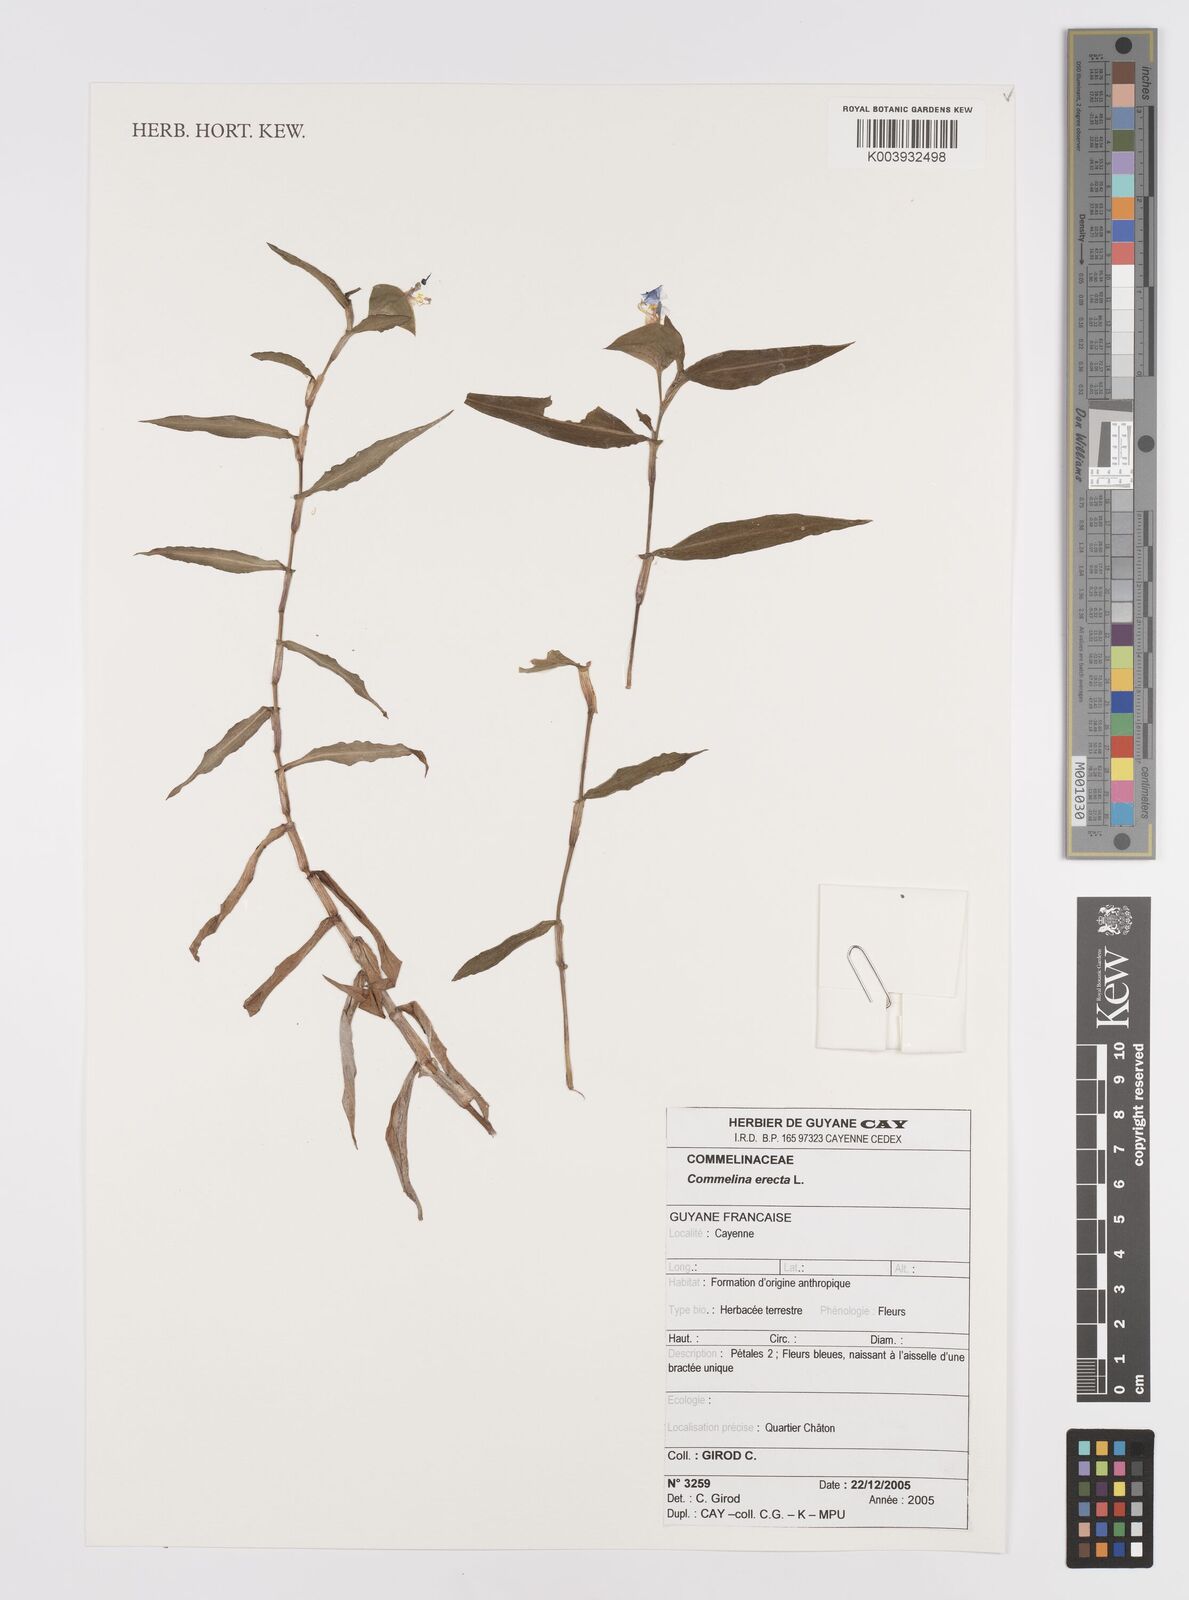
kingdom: Plantae
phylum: Tracheophyta
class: Liliopsida
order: Commelinales
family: Commelinaceae
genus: Commelina
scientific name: Commelina erecta
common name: Blousel blommetjie
